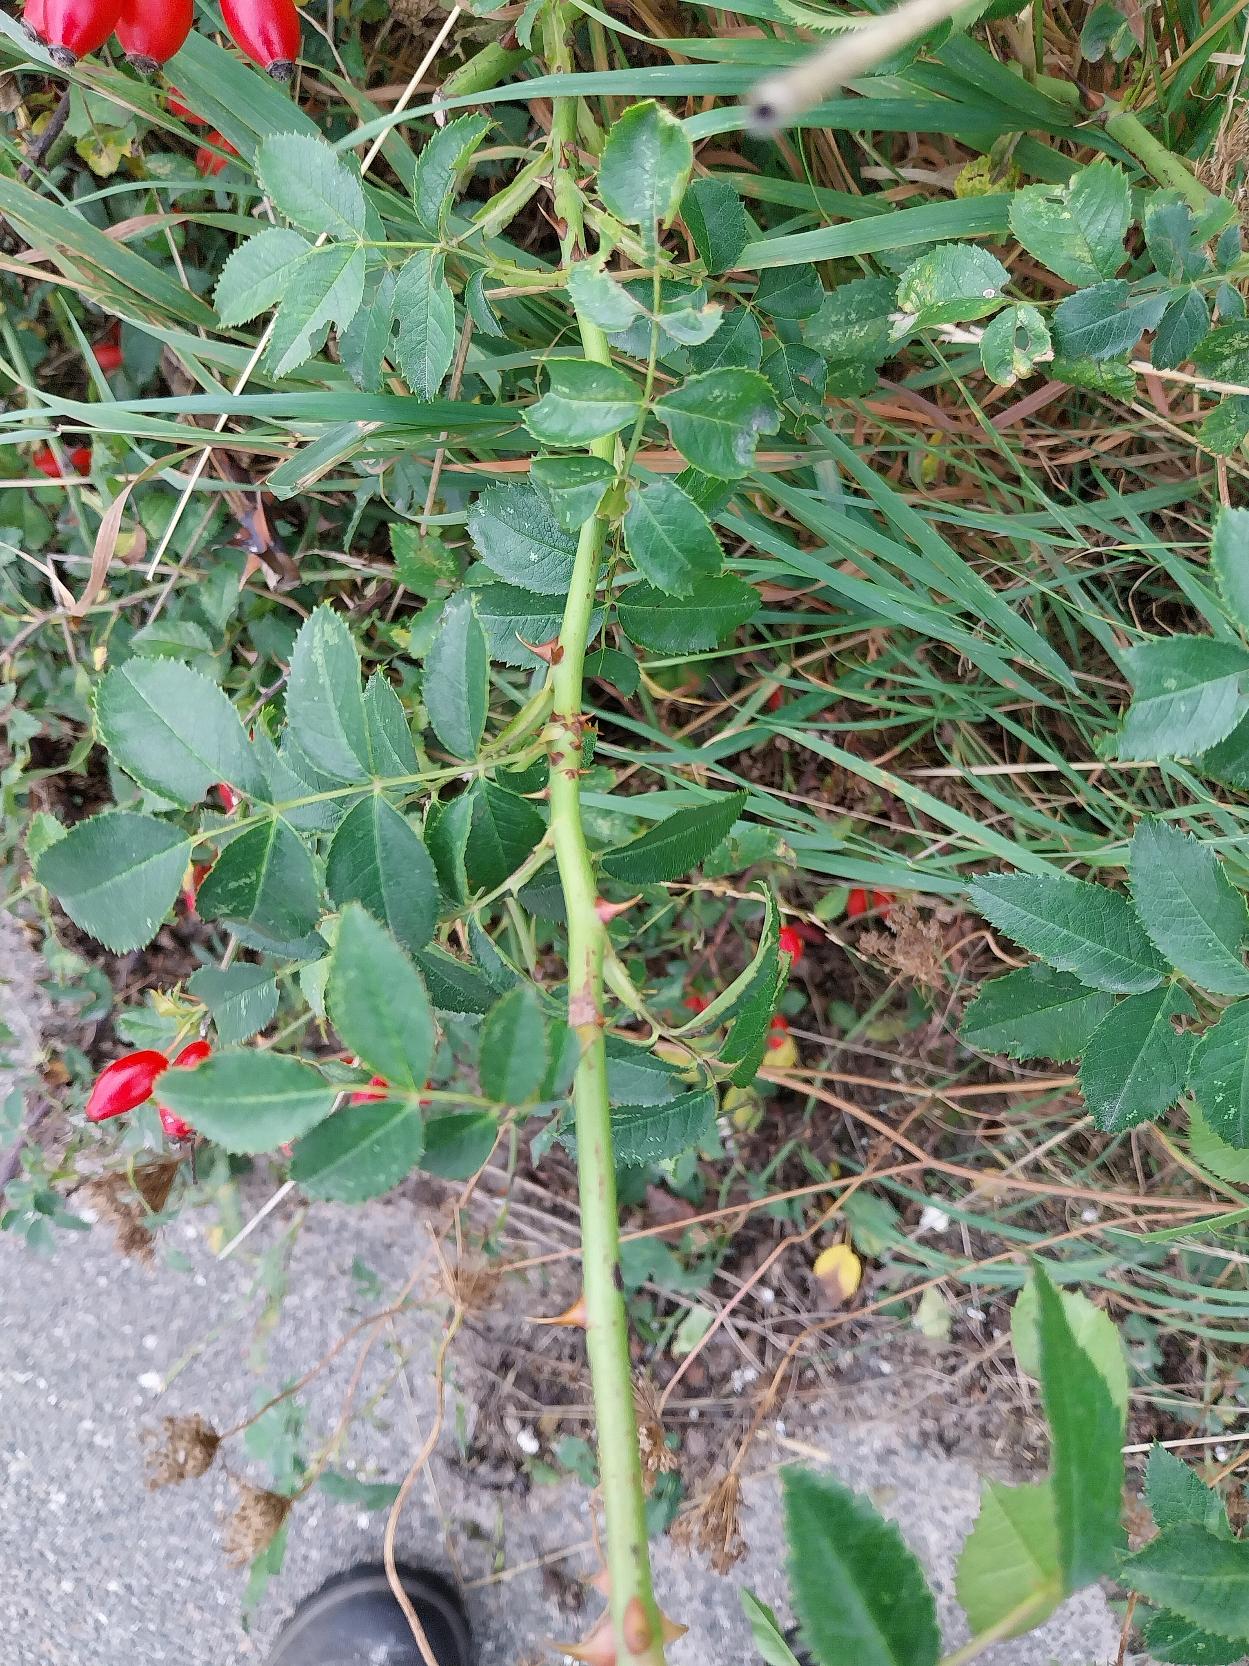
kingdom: Plantae
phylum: Tracheophyta
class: Magnoliopsida
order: Rosales
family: Rosaceae
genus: Rosa
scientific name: Rosa canina
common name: Glat hunde-rose
